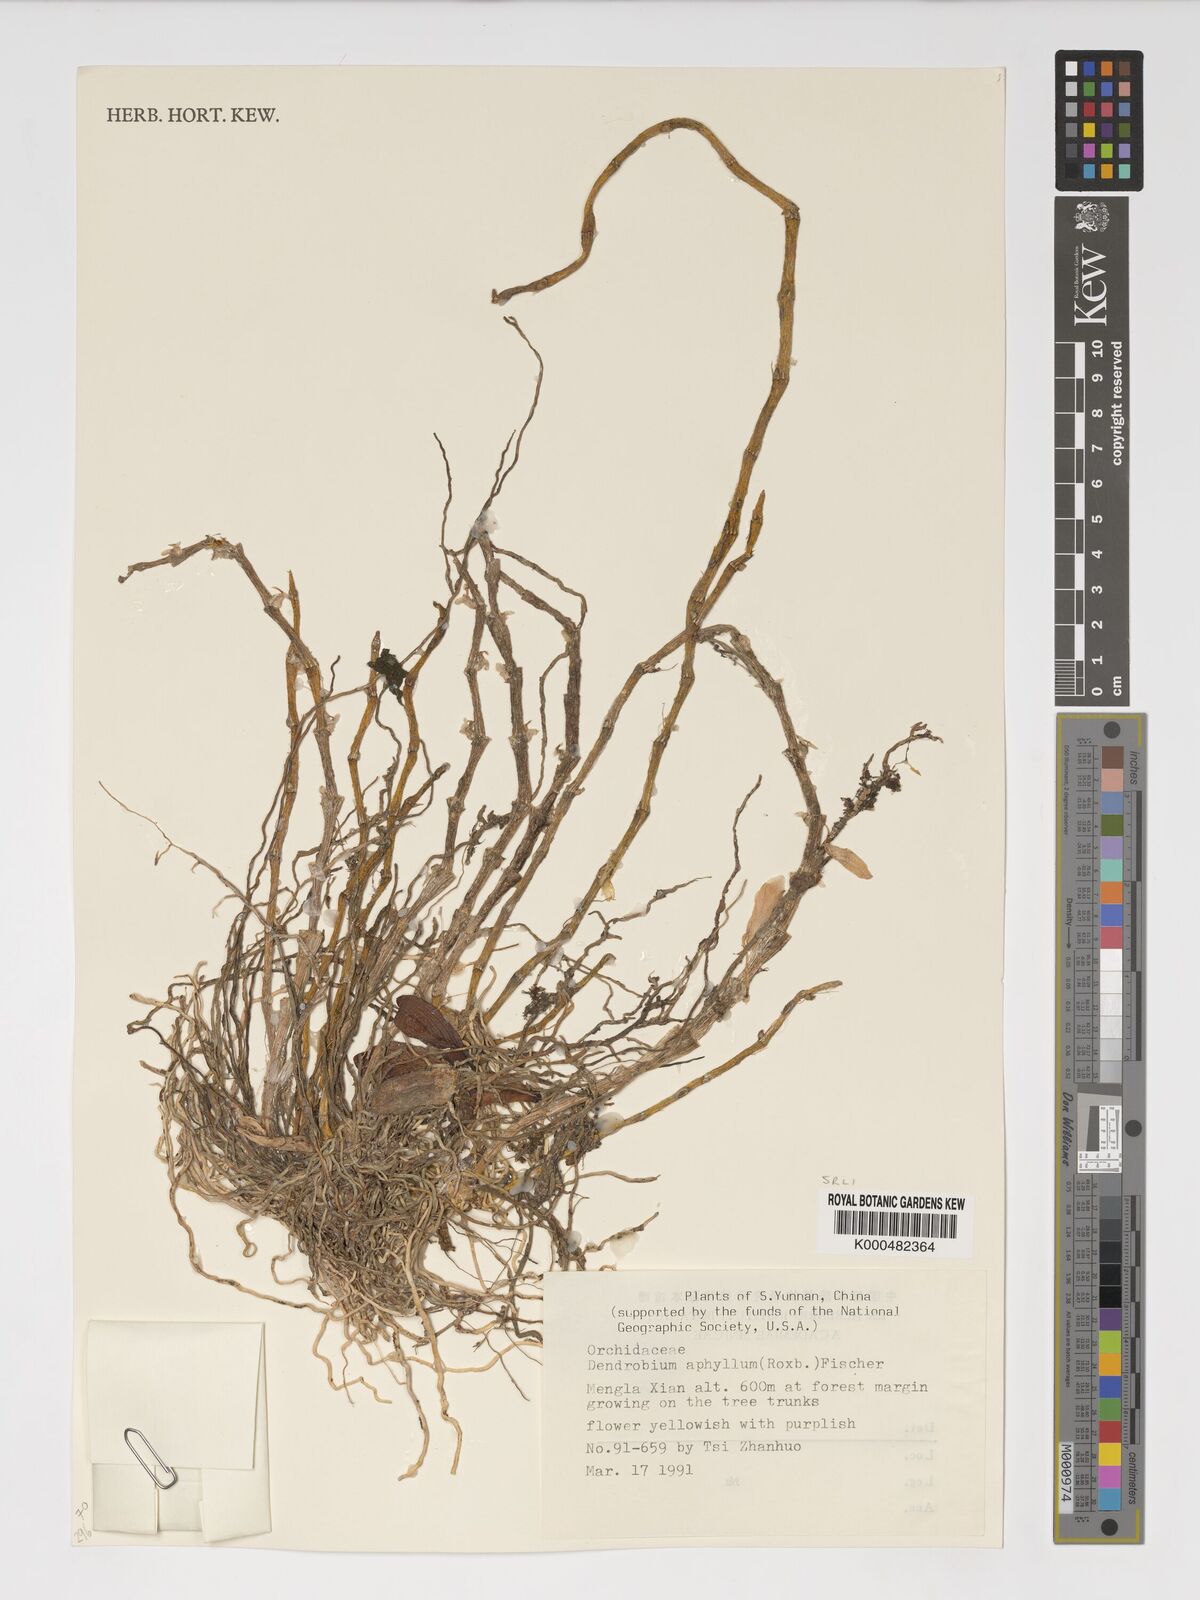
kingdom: Plantae
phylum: Tracheophyta
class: Liliopsida
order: Asparagales
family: Orchidaceae
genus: Dendrobium
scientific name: Dendrobium macrostachyum
